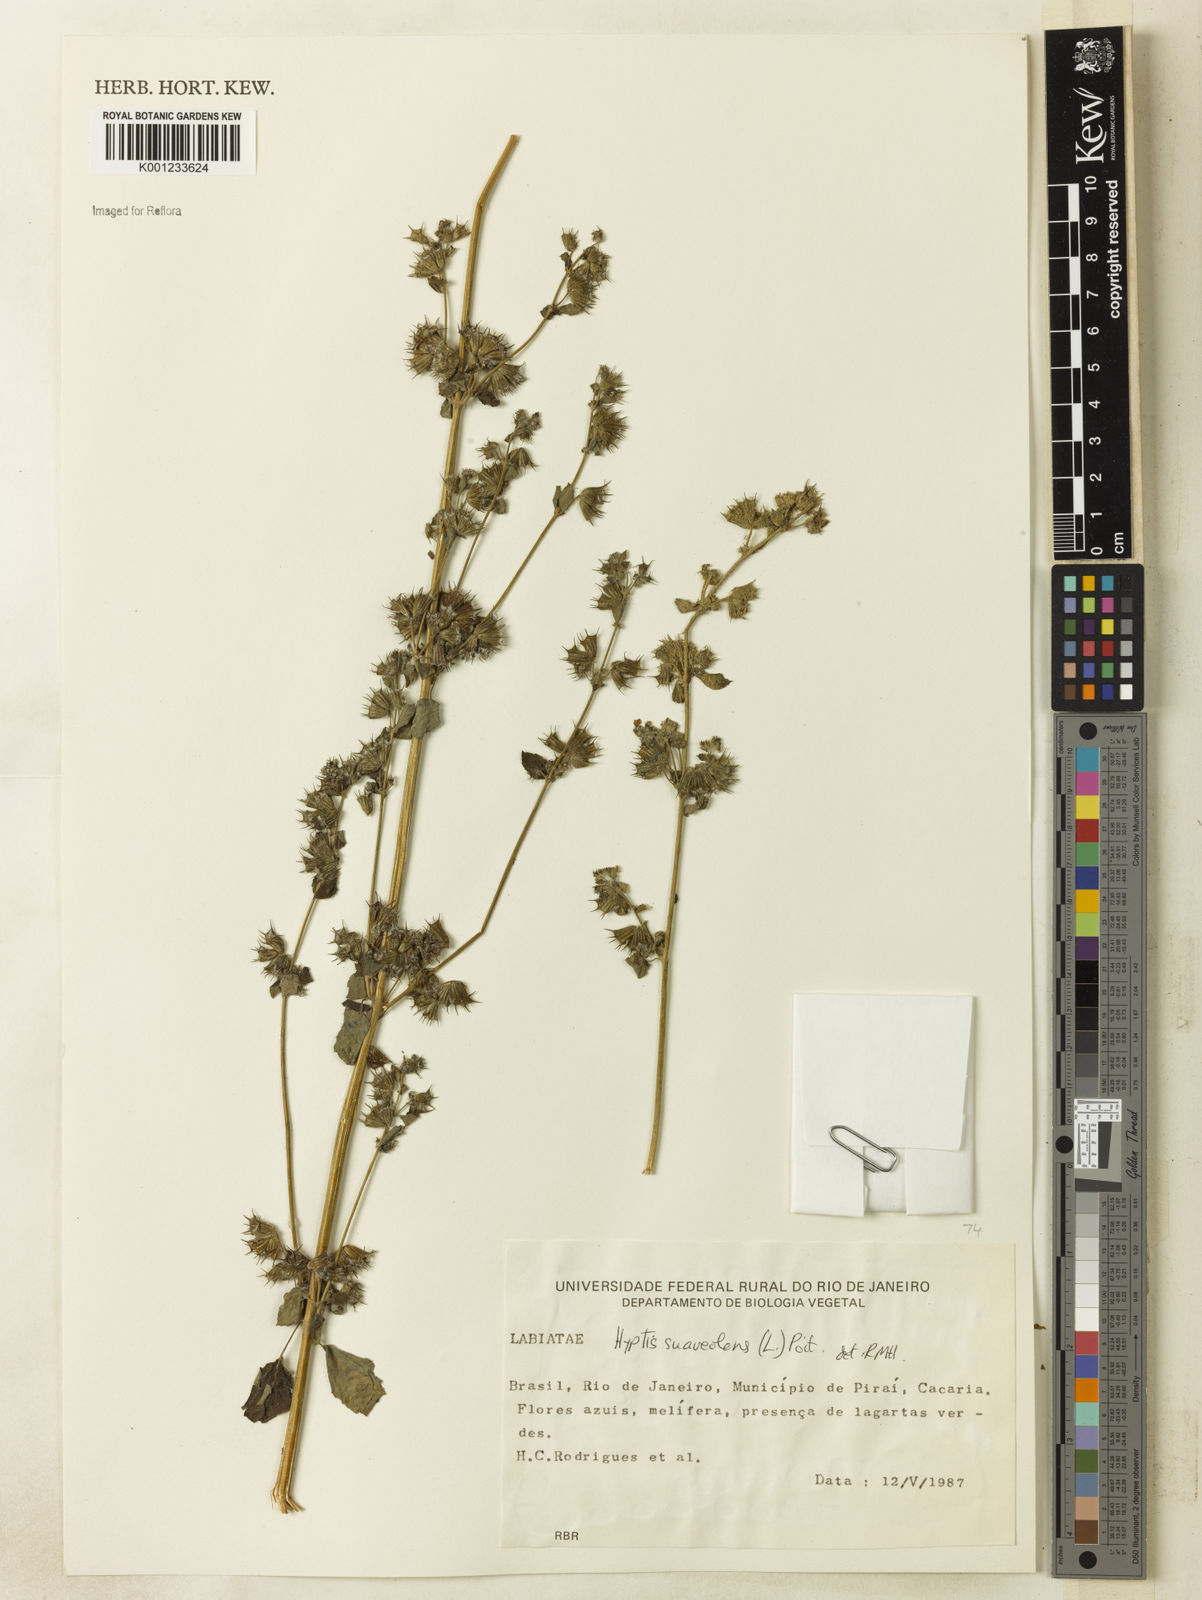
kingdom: Plantae
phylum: Tracheophyta
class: Magnoliopsida
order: Lamiales
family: Lamiaceae
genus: Mesosphaerum
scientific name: Mesosphaerum suaveolens
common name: Pignut
